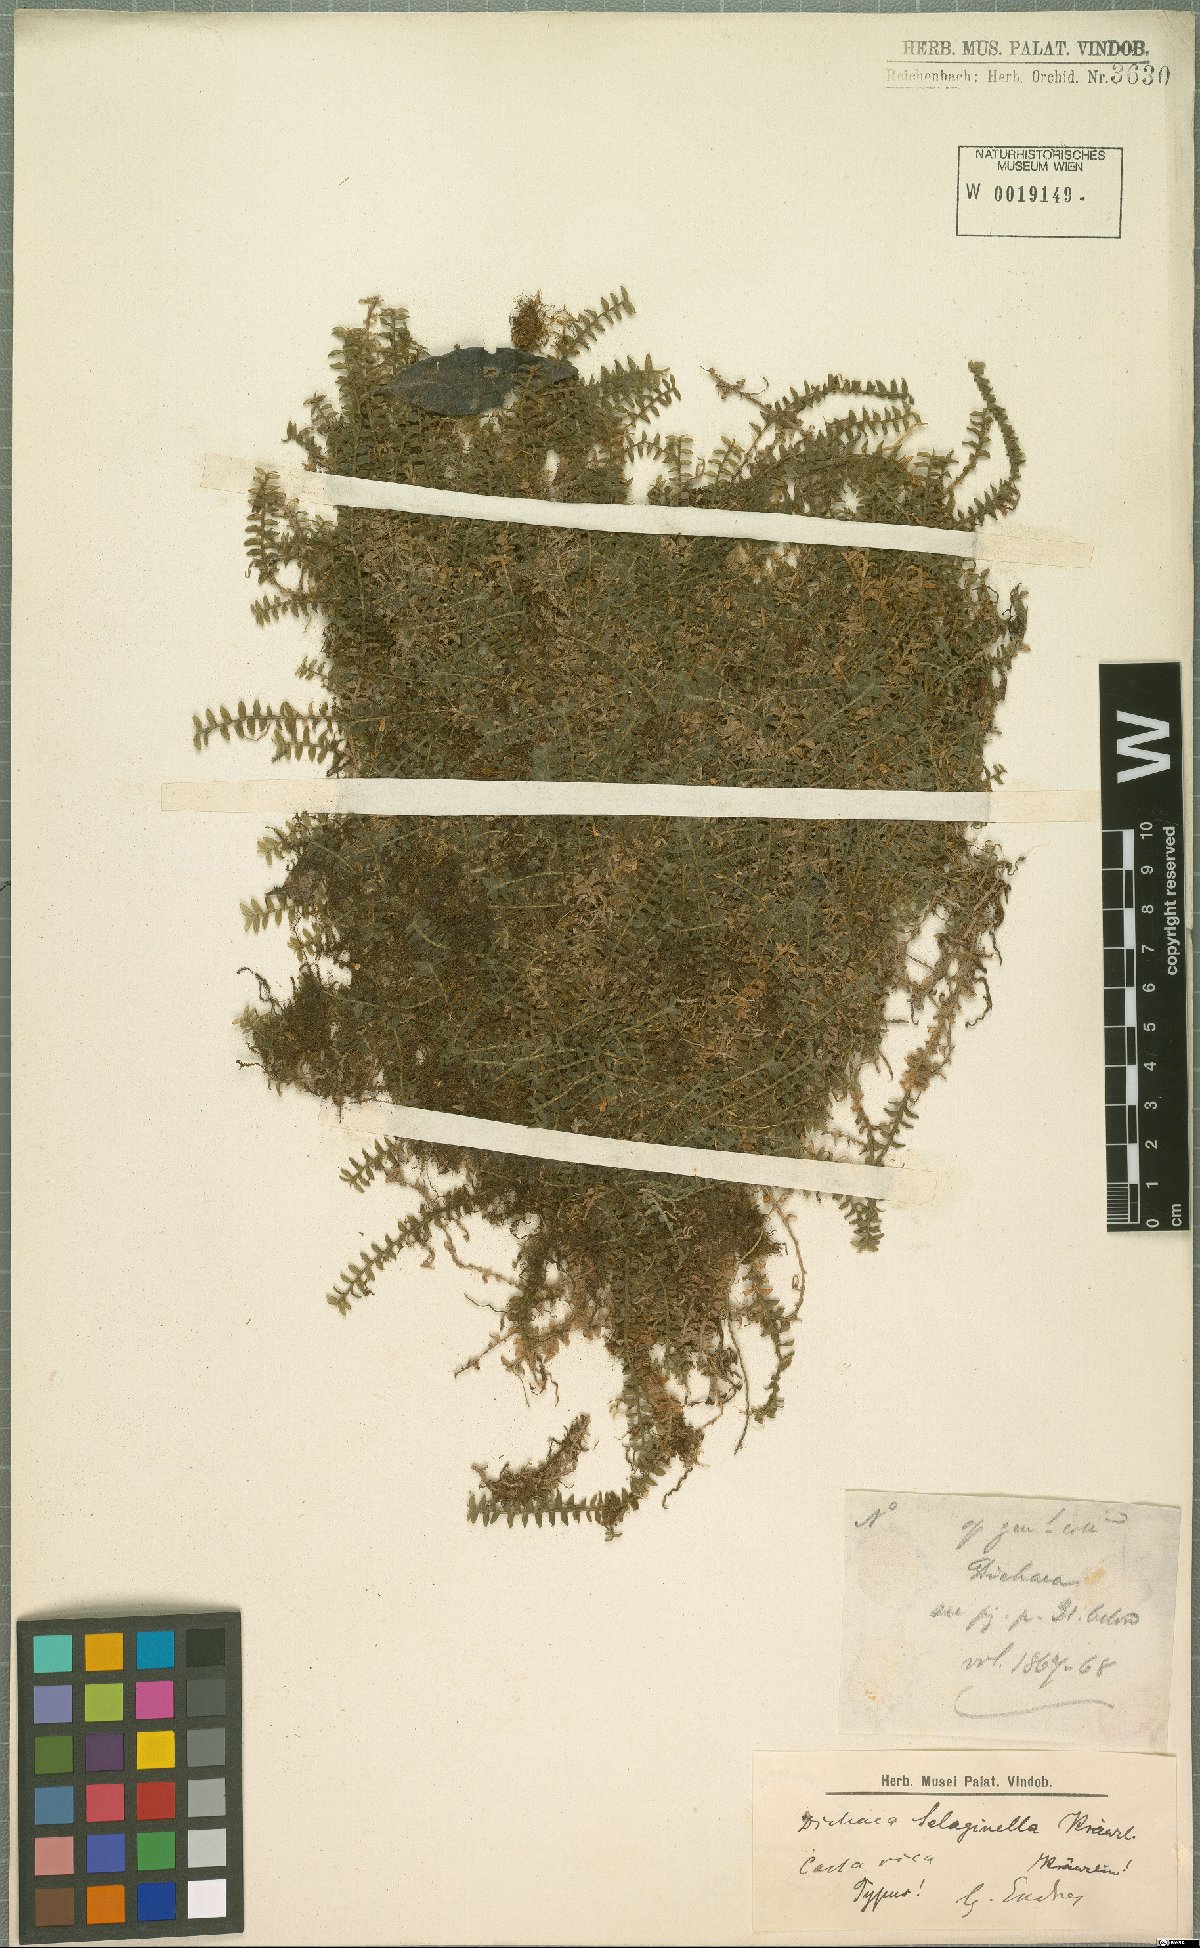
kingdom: Plantae
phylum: Tracheophyta
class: Liliopsida
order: Asparagales
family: Orchidaceae
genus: Dichaea
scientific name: Dichaea selaginella
